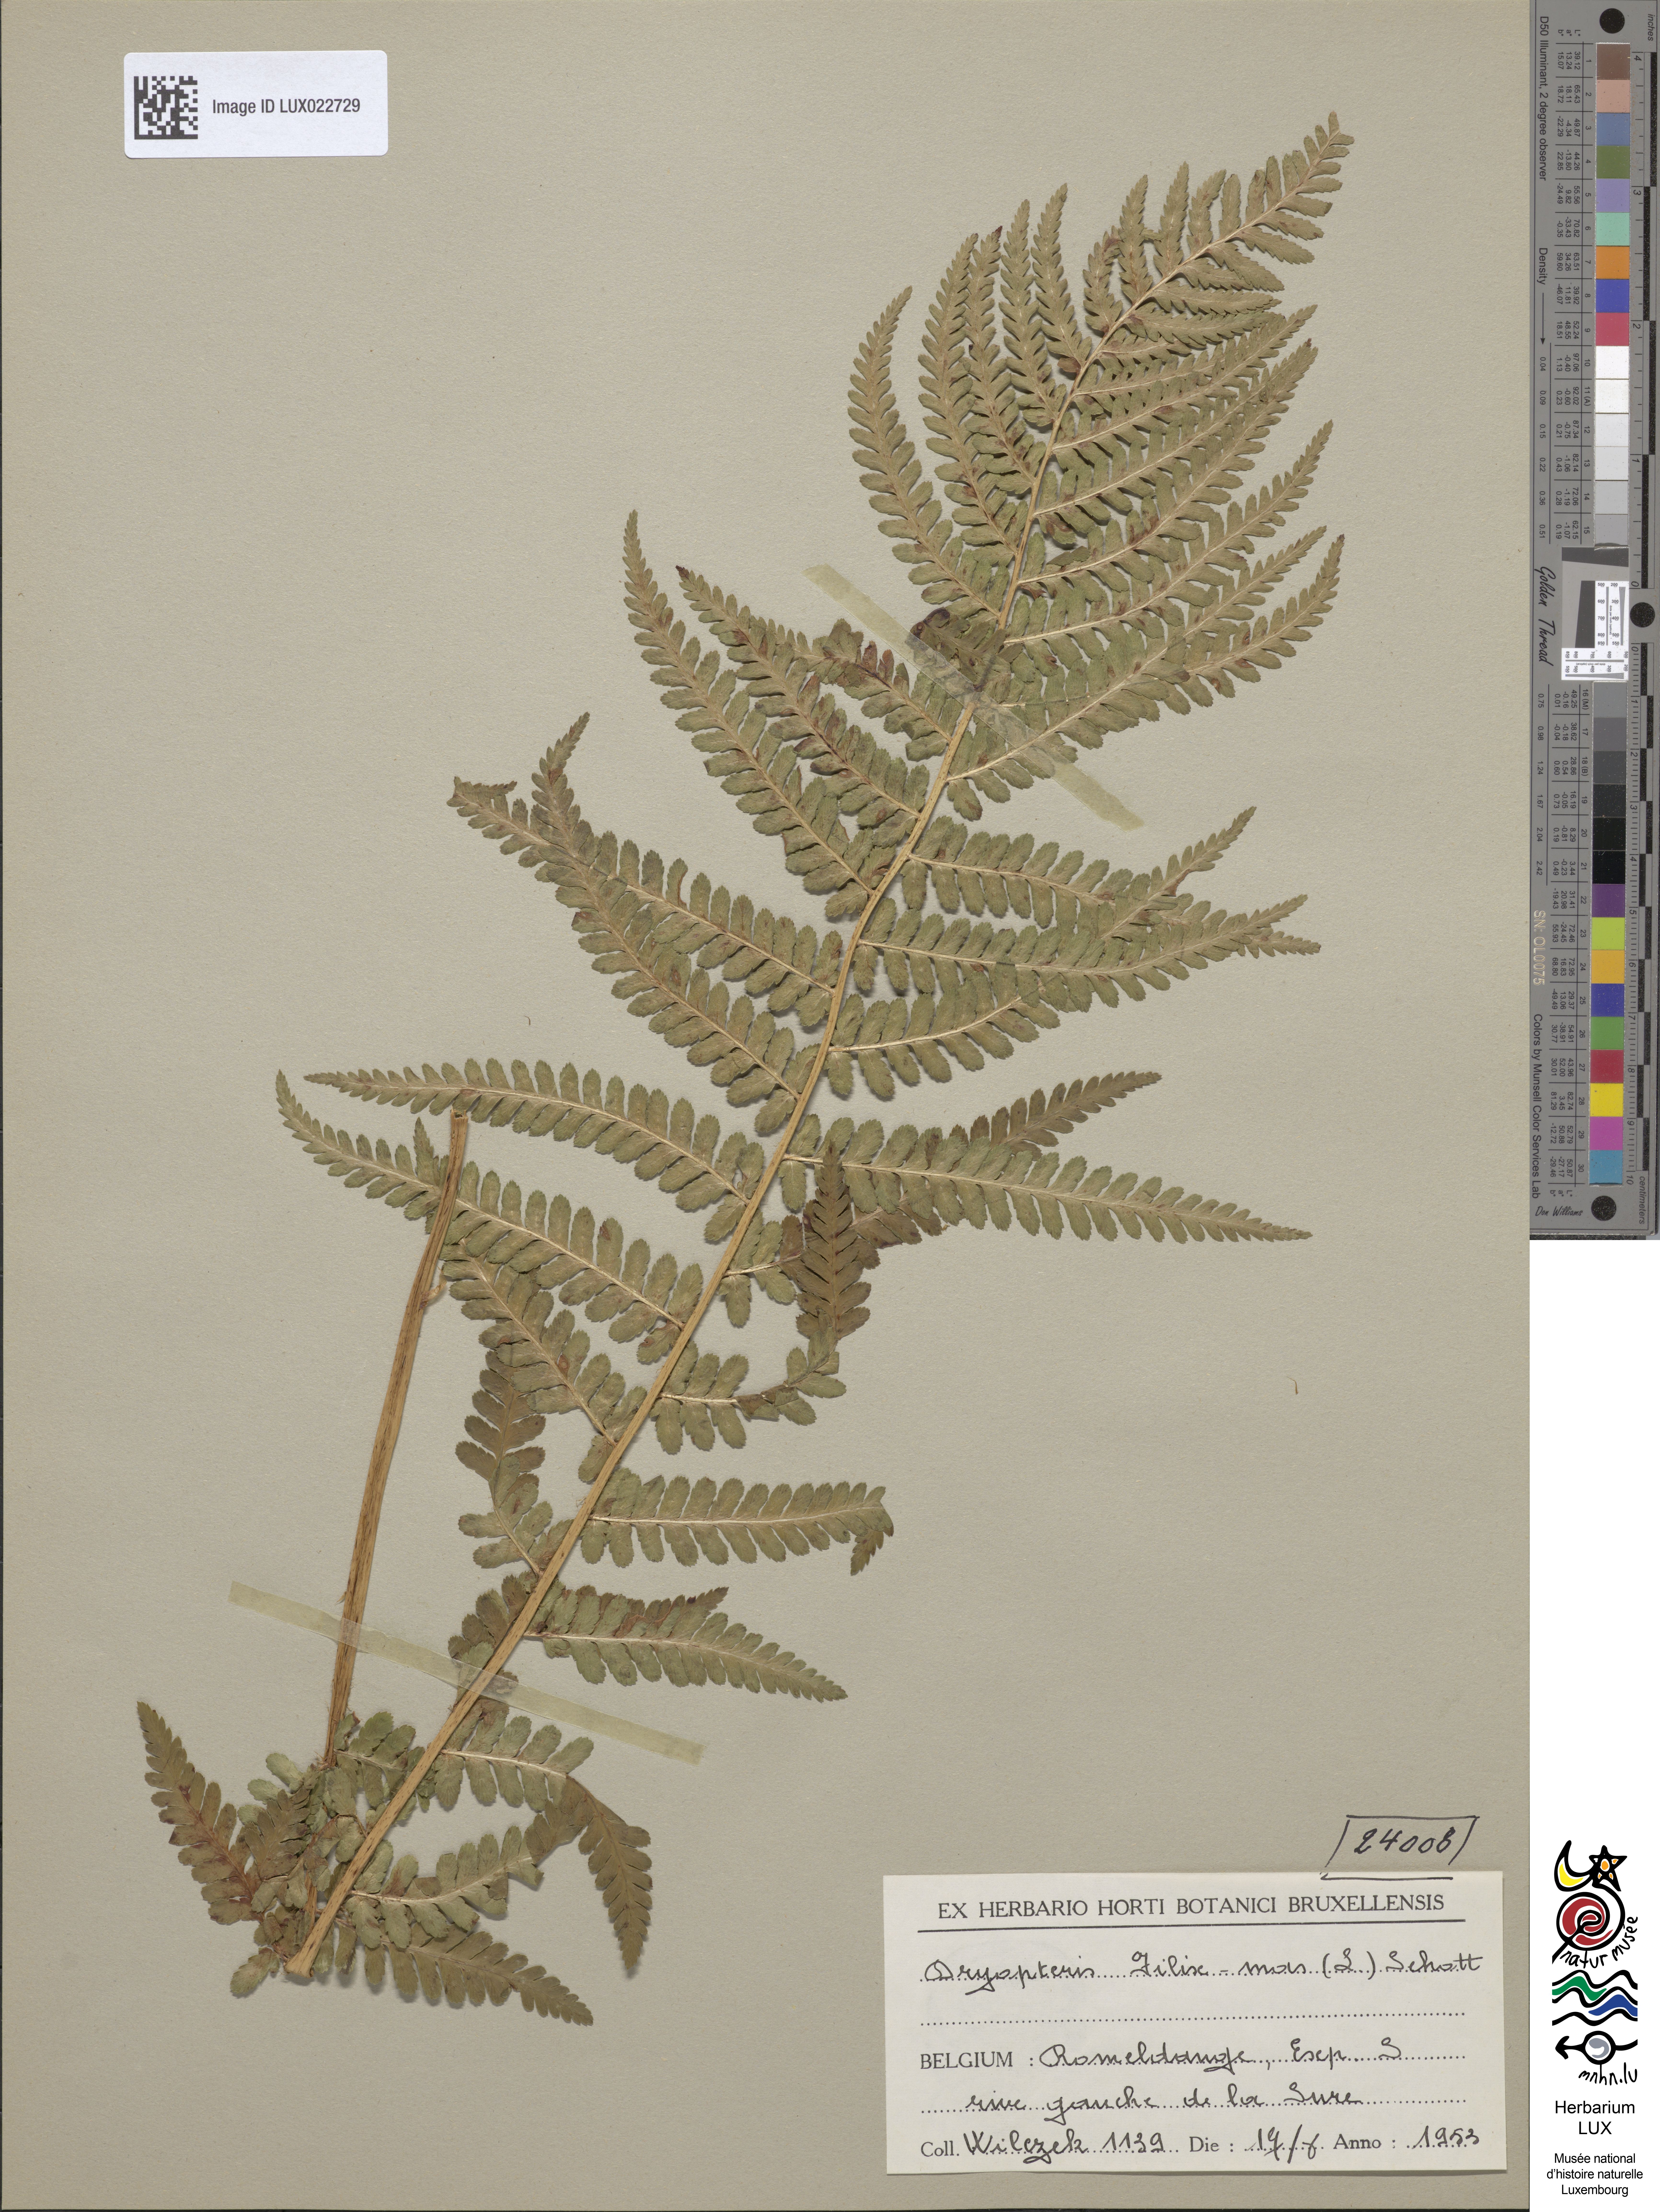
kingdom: Plantae
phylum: Tracheophyta
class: Polypodiopsida
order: Polypodiales
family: Dryopteridaceae
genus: Dryopteris
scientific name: Dryopteris filix-mas
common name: Male fern
